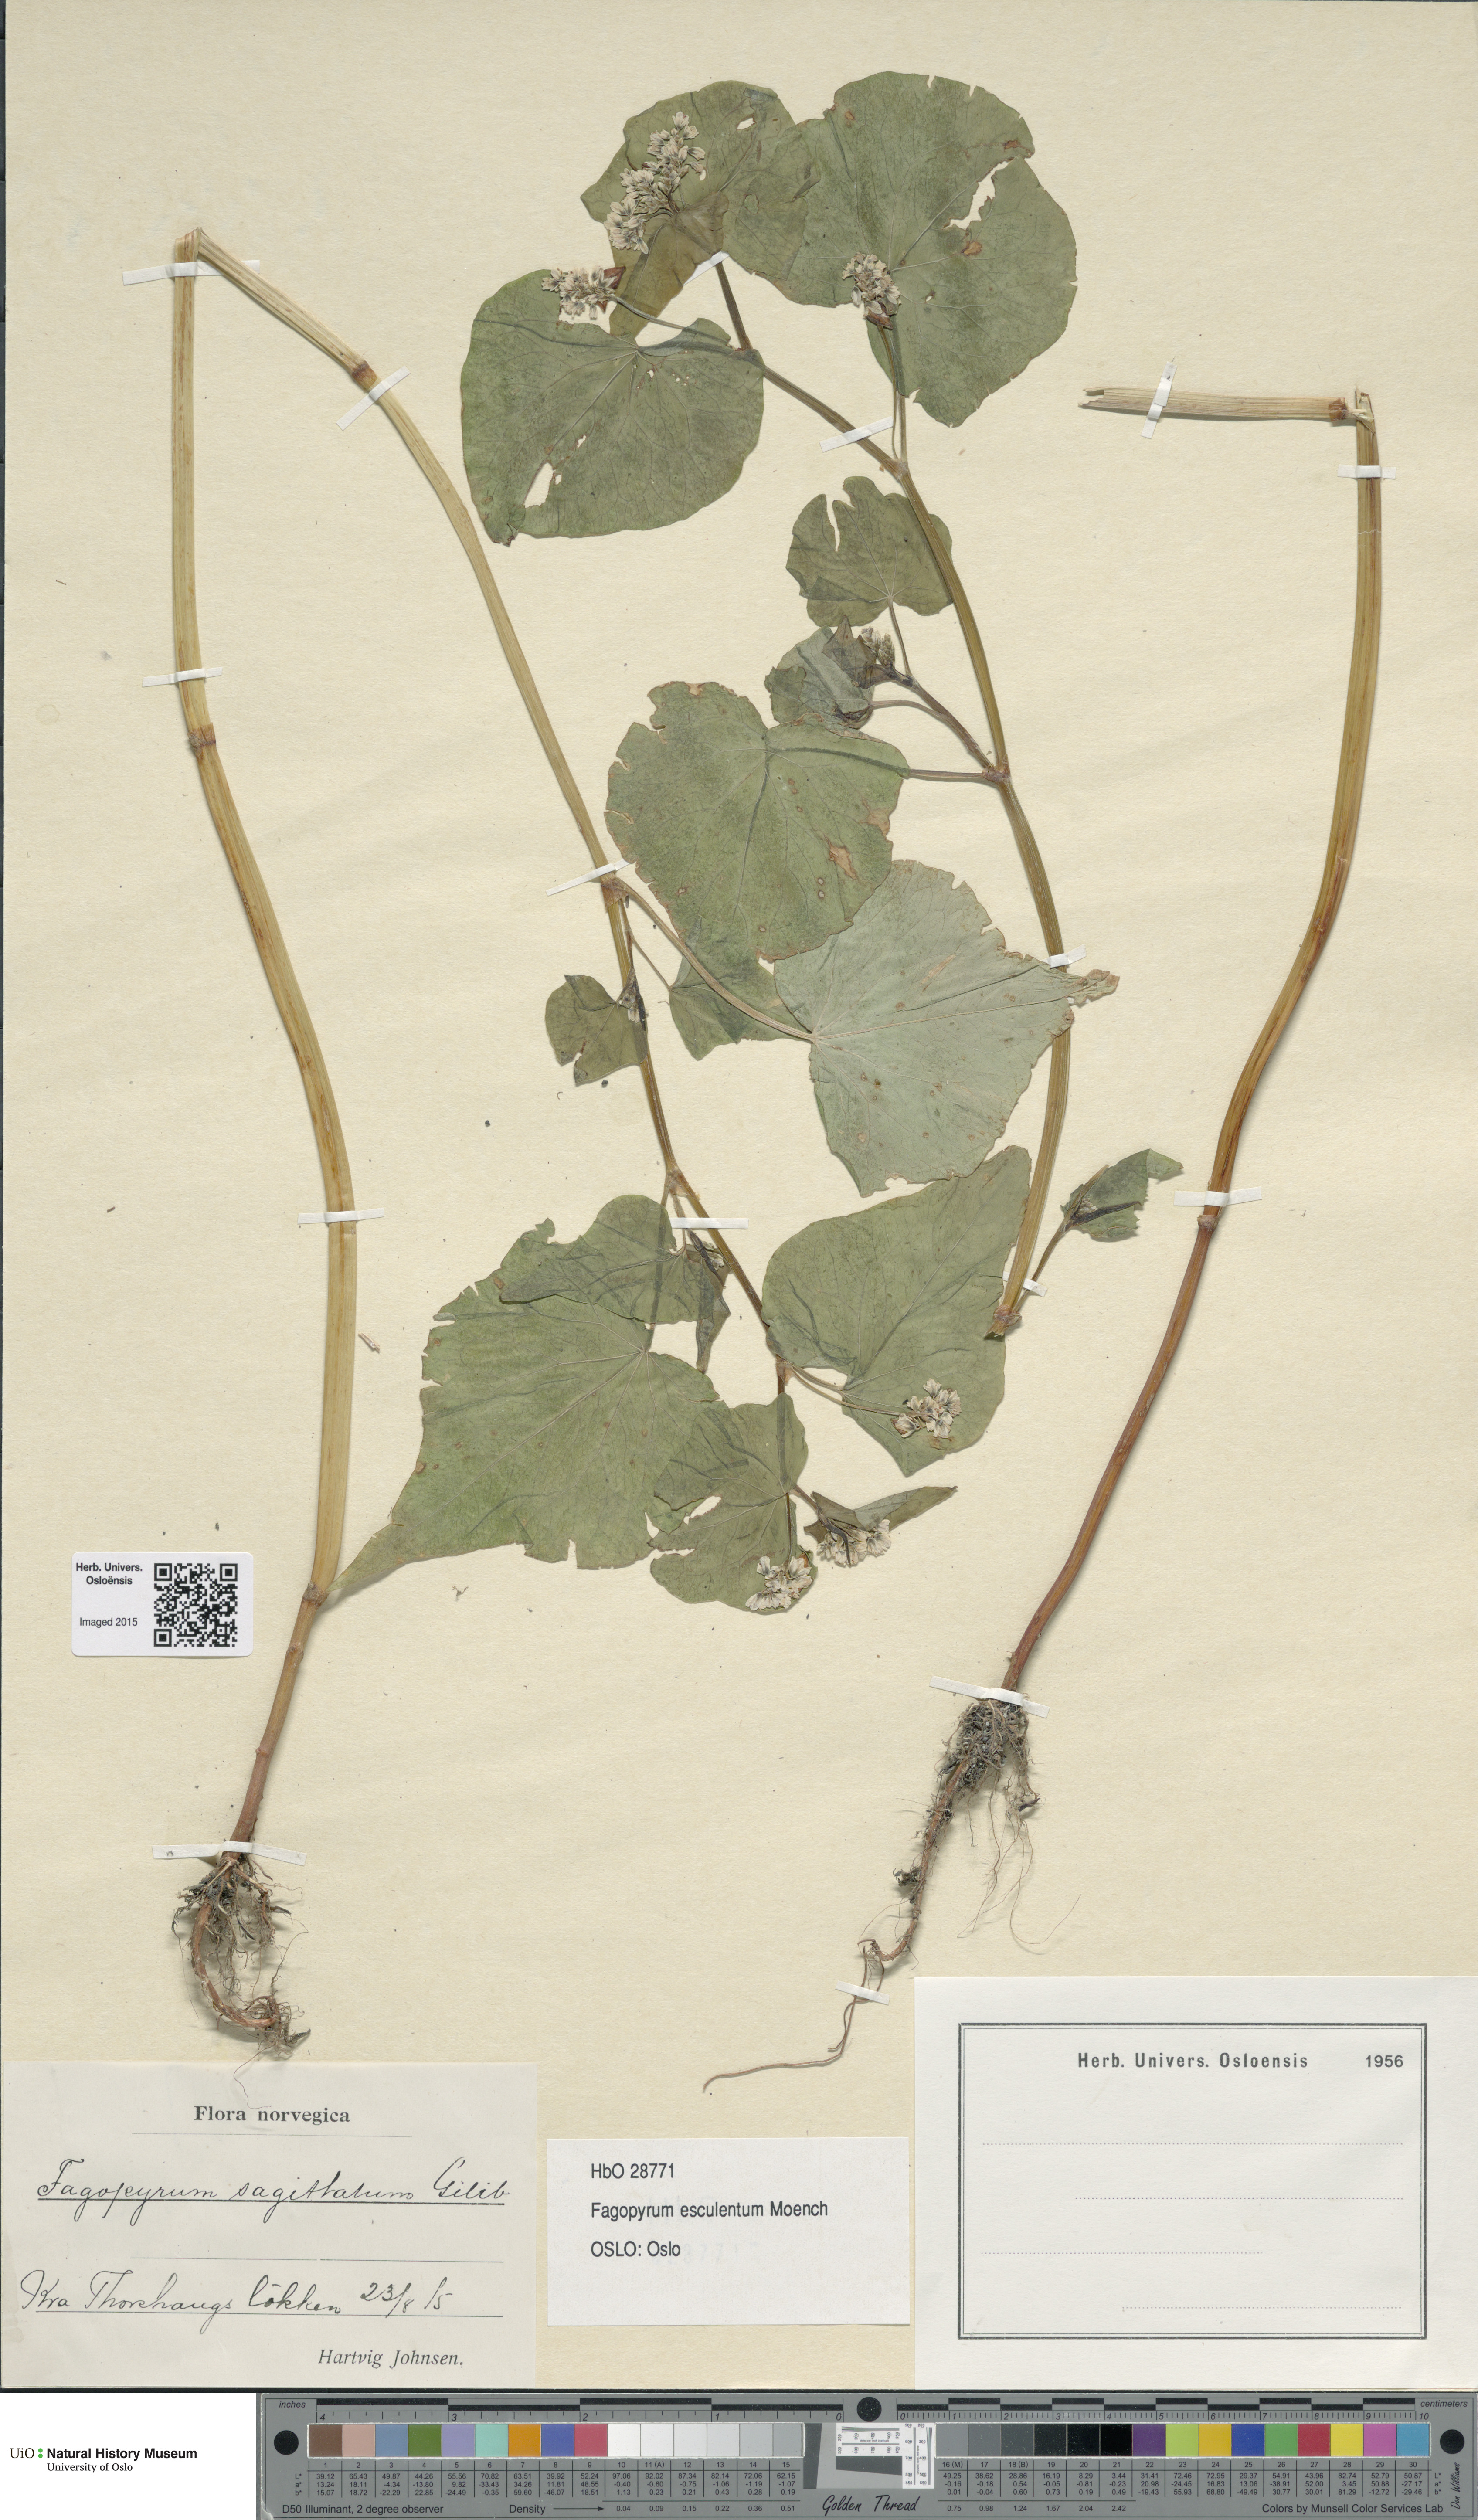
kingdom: Plantae
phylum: Tracheophyta
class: Magnoliopsida
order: Caryophyllales
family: Polygonaceae
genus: Fagopyrum
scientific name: Fagopyrum esculentum
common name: Buckwheat
